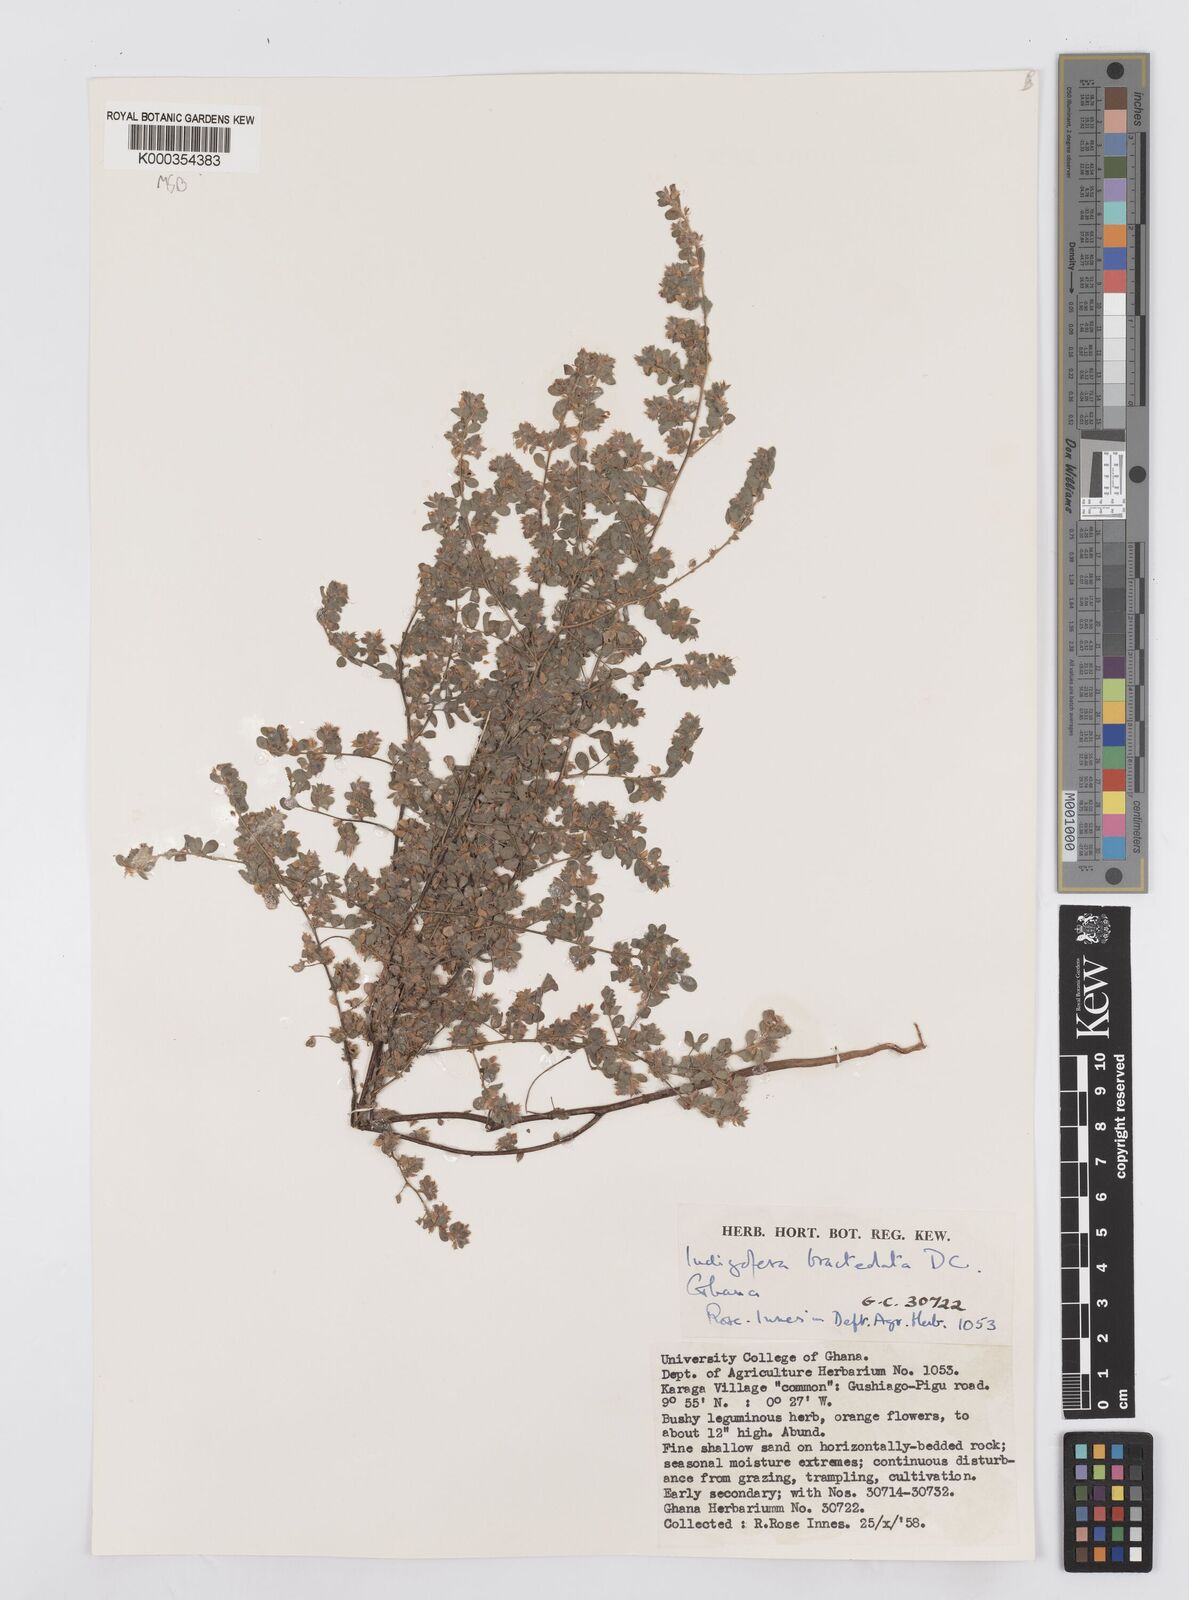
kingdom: Plantae
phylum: Tracheophyta
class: Magnoliopsida
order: Fabales
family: Fabaceae
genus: Indigofera
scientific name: Indigofera bracteolata
